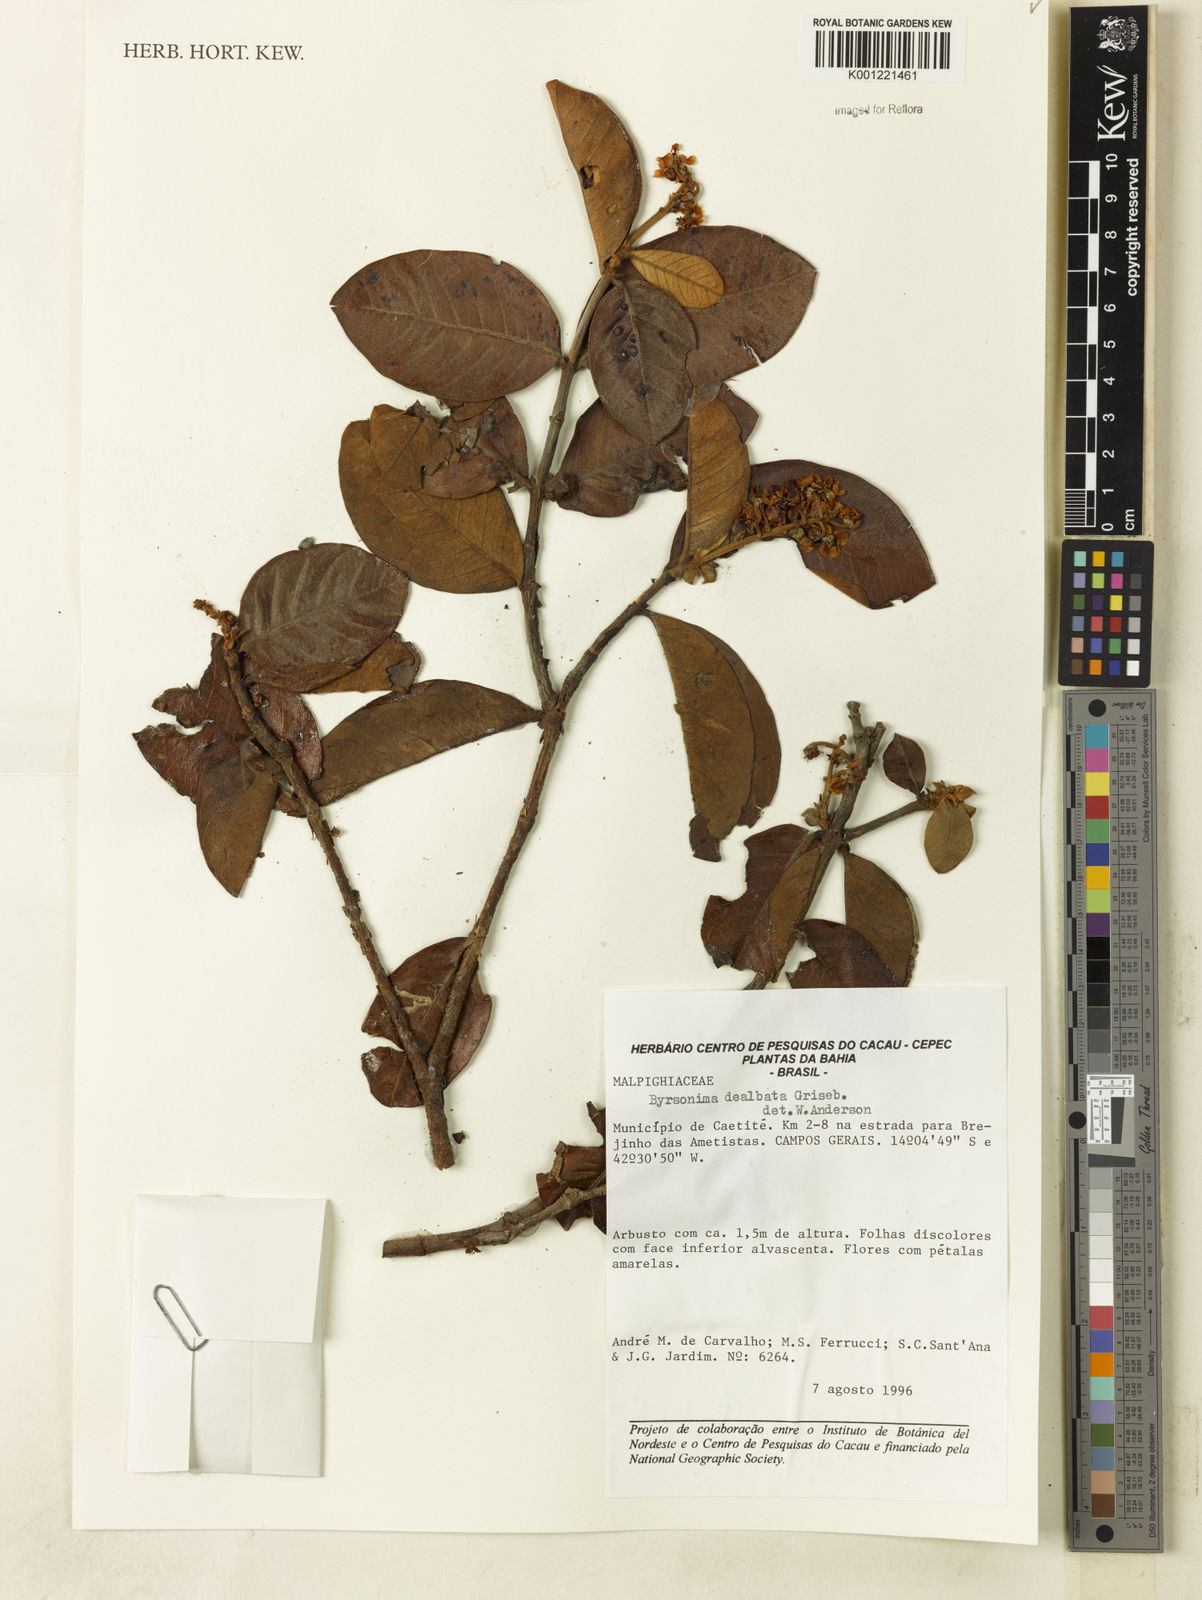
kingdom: Plantae
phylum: Tracheophyta
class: Magnoliopsida
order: Malpighiales
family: Malpighiaceae
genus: Byrsonima
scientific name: Byrsonima dealbata
